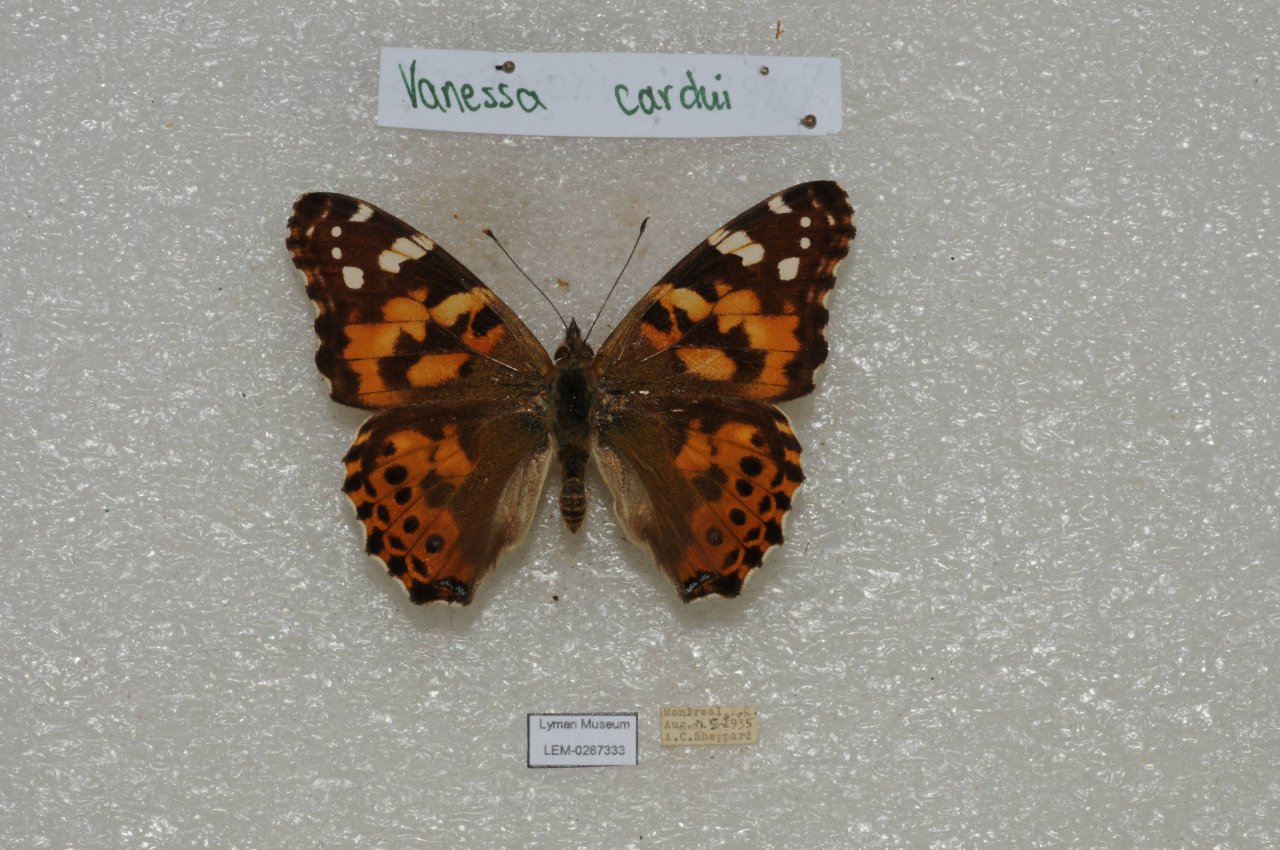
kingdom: Animalia
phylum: Arthropoda
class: Insecta
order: Lepidoptera
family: Nymphalidae
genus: Vanessa
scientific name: Vanessa cardui
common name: Painted Lady
